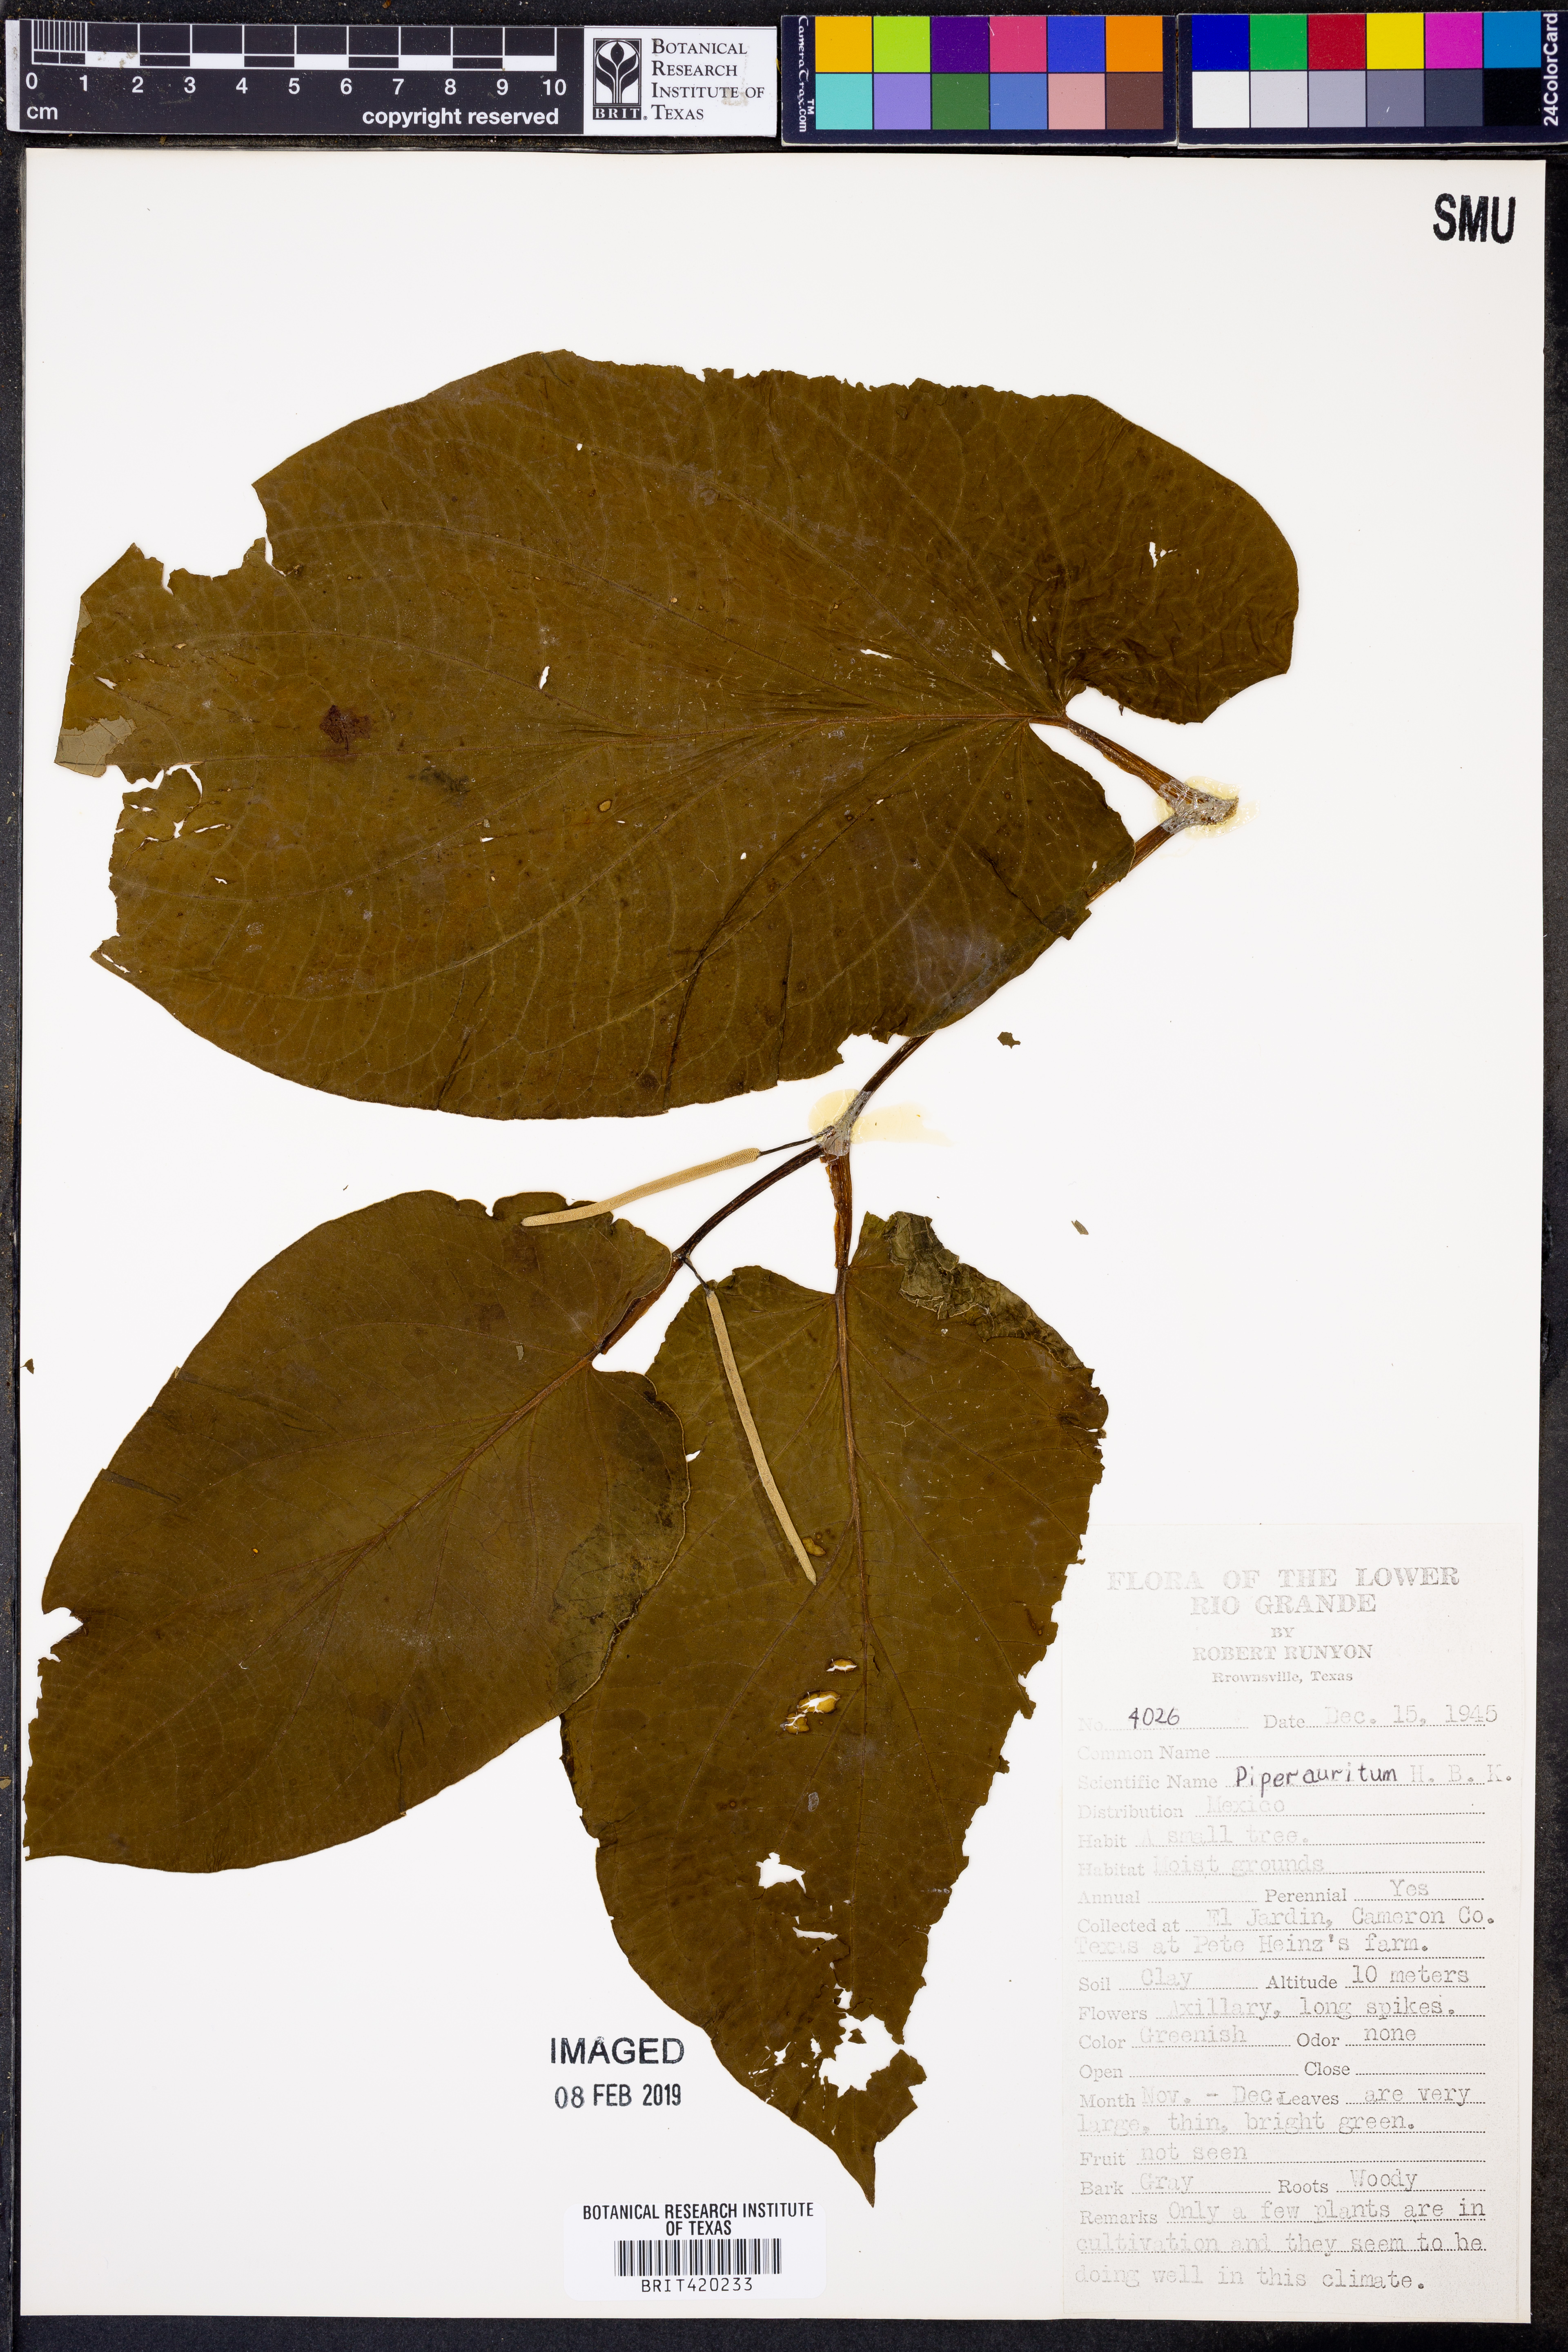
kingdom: Plantae
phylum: Tracheophyta
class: Magnoliopsida
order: Piperales
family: Piperaceae
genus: Piper
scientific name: Piper auritum
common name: Vera cruz pepper
